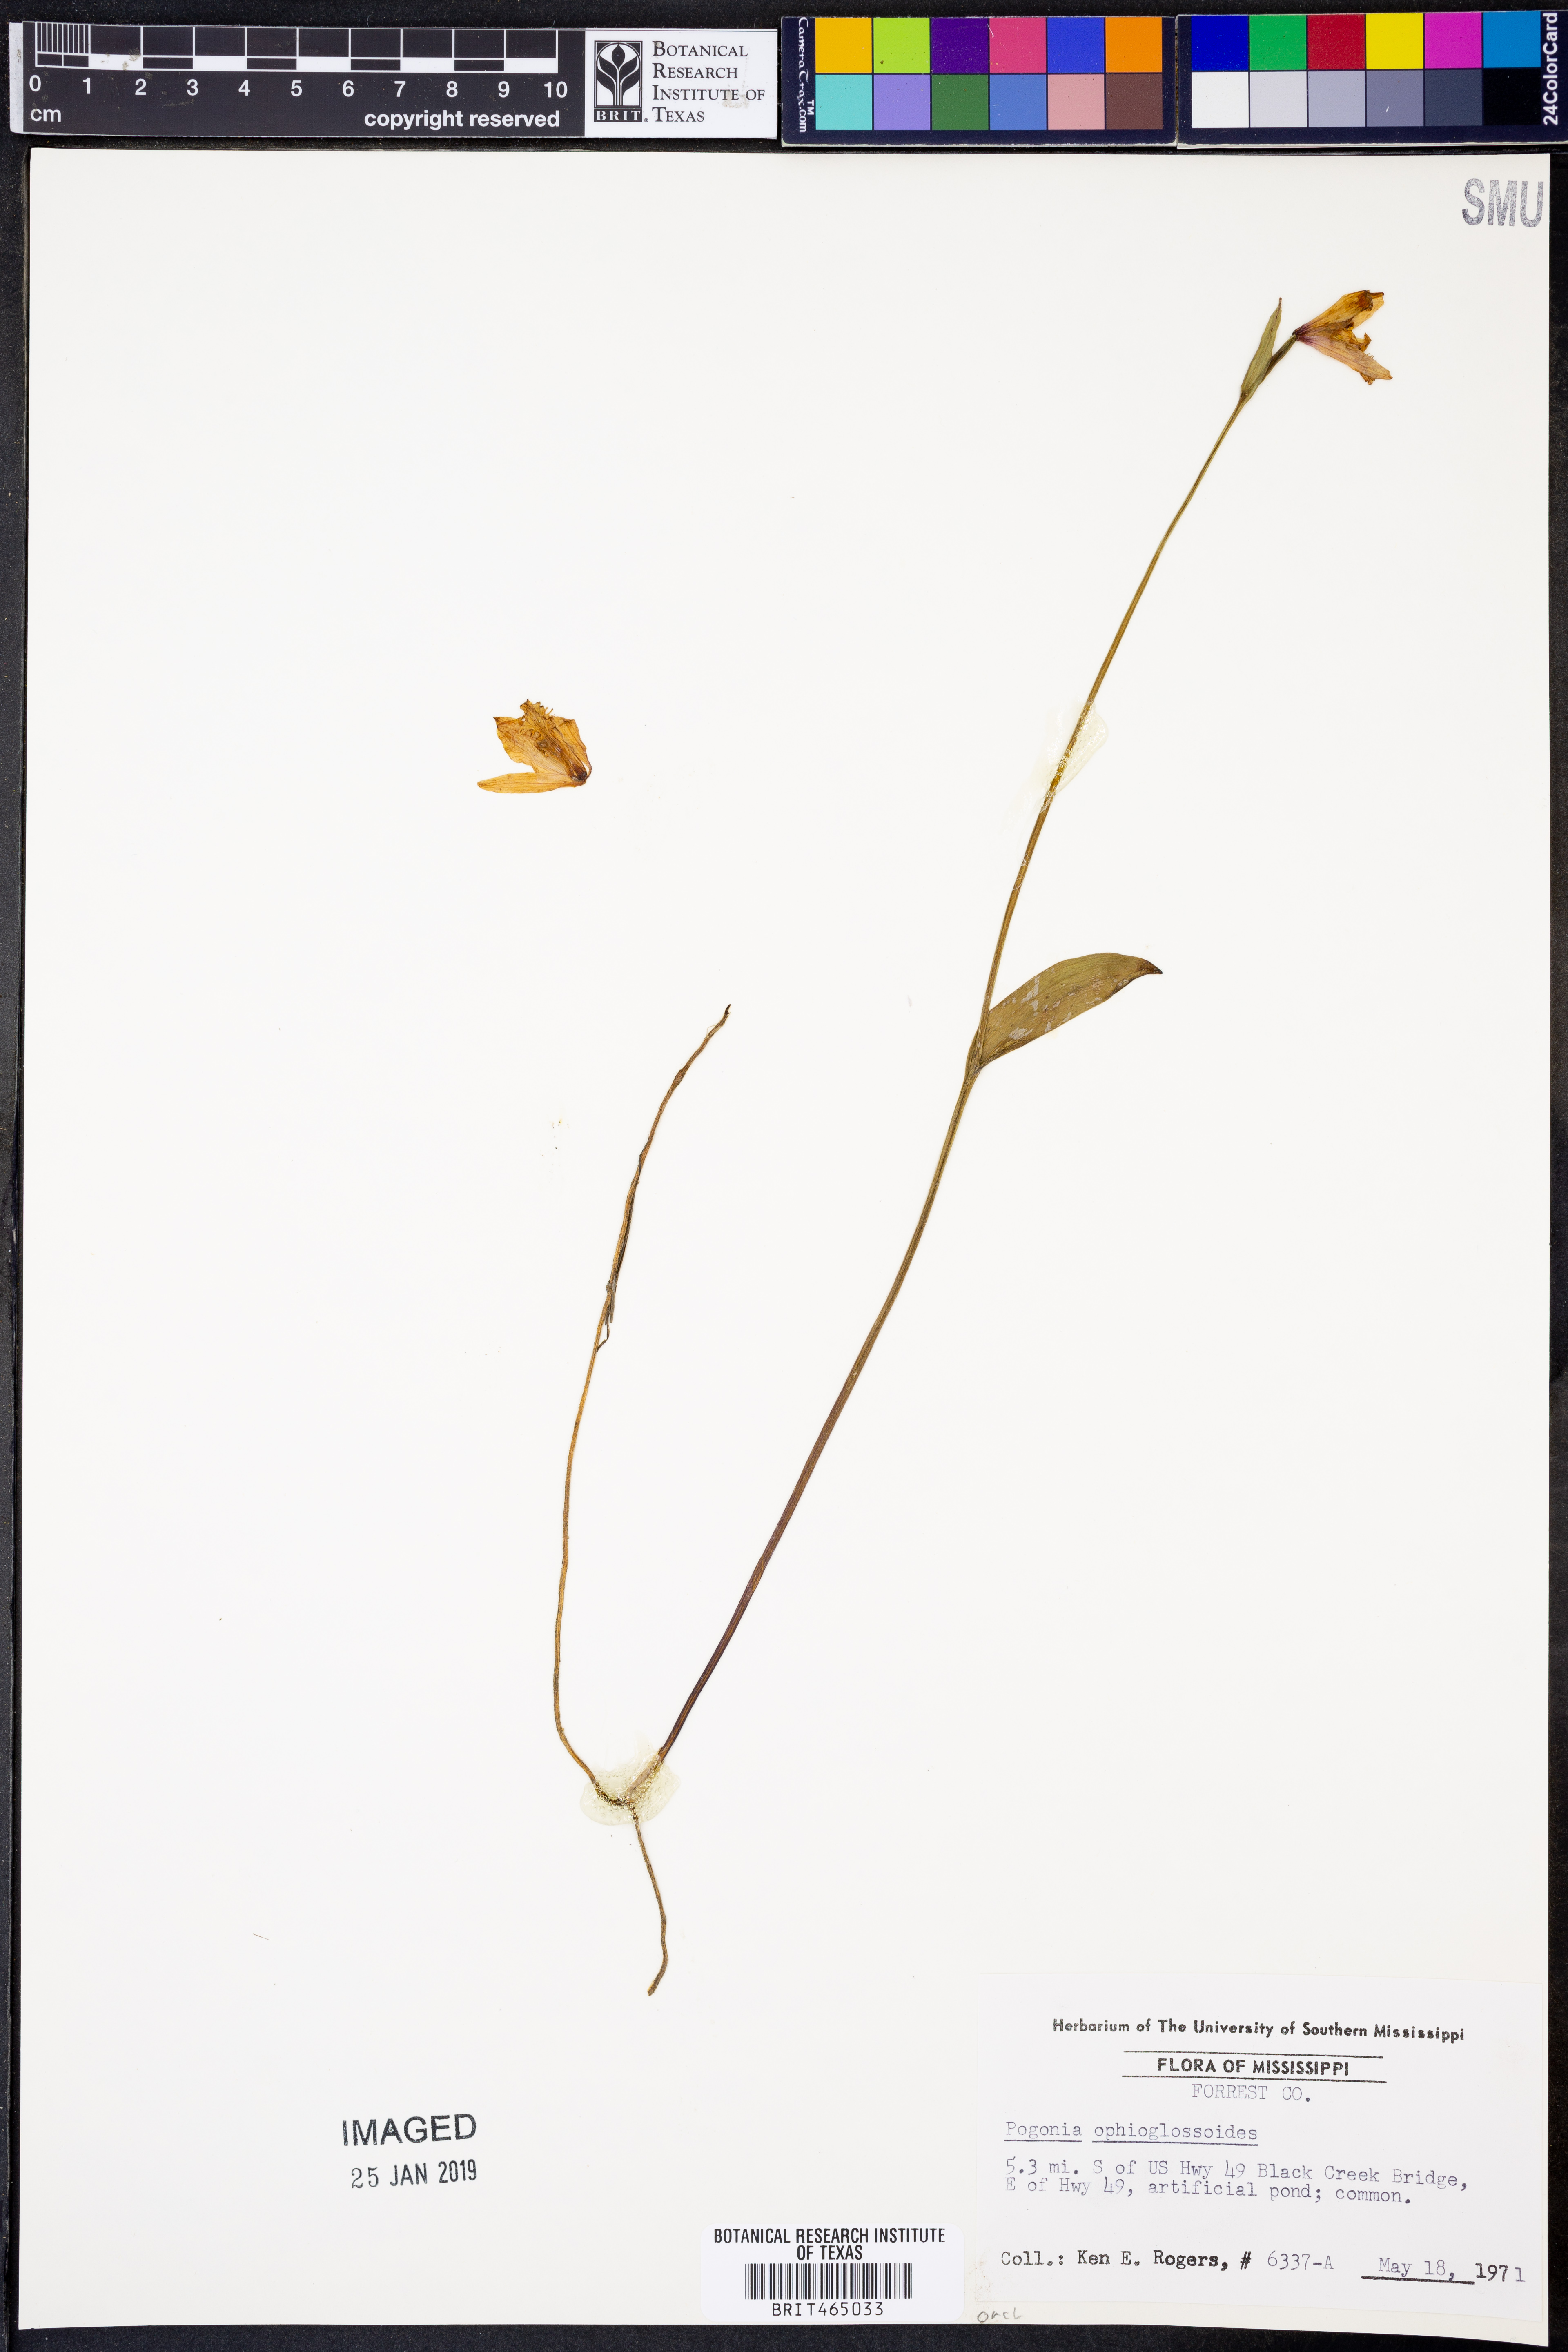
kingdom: Plantae
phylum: Tracheophyta
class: Liliopsida
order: Asparagales
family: Orchidaceae
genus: Pogonia
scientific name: Pogonia ophioglossoides
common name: Rose pogonia
